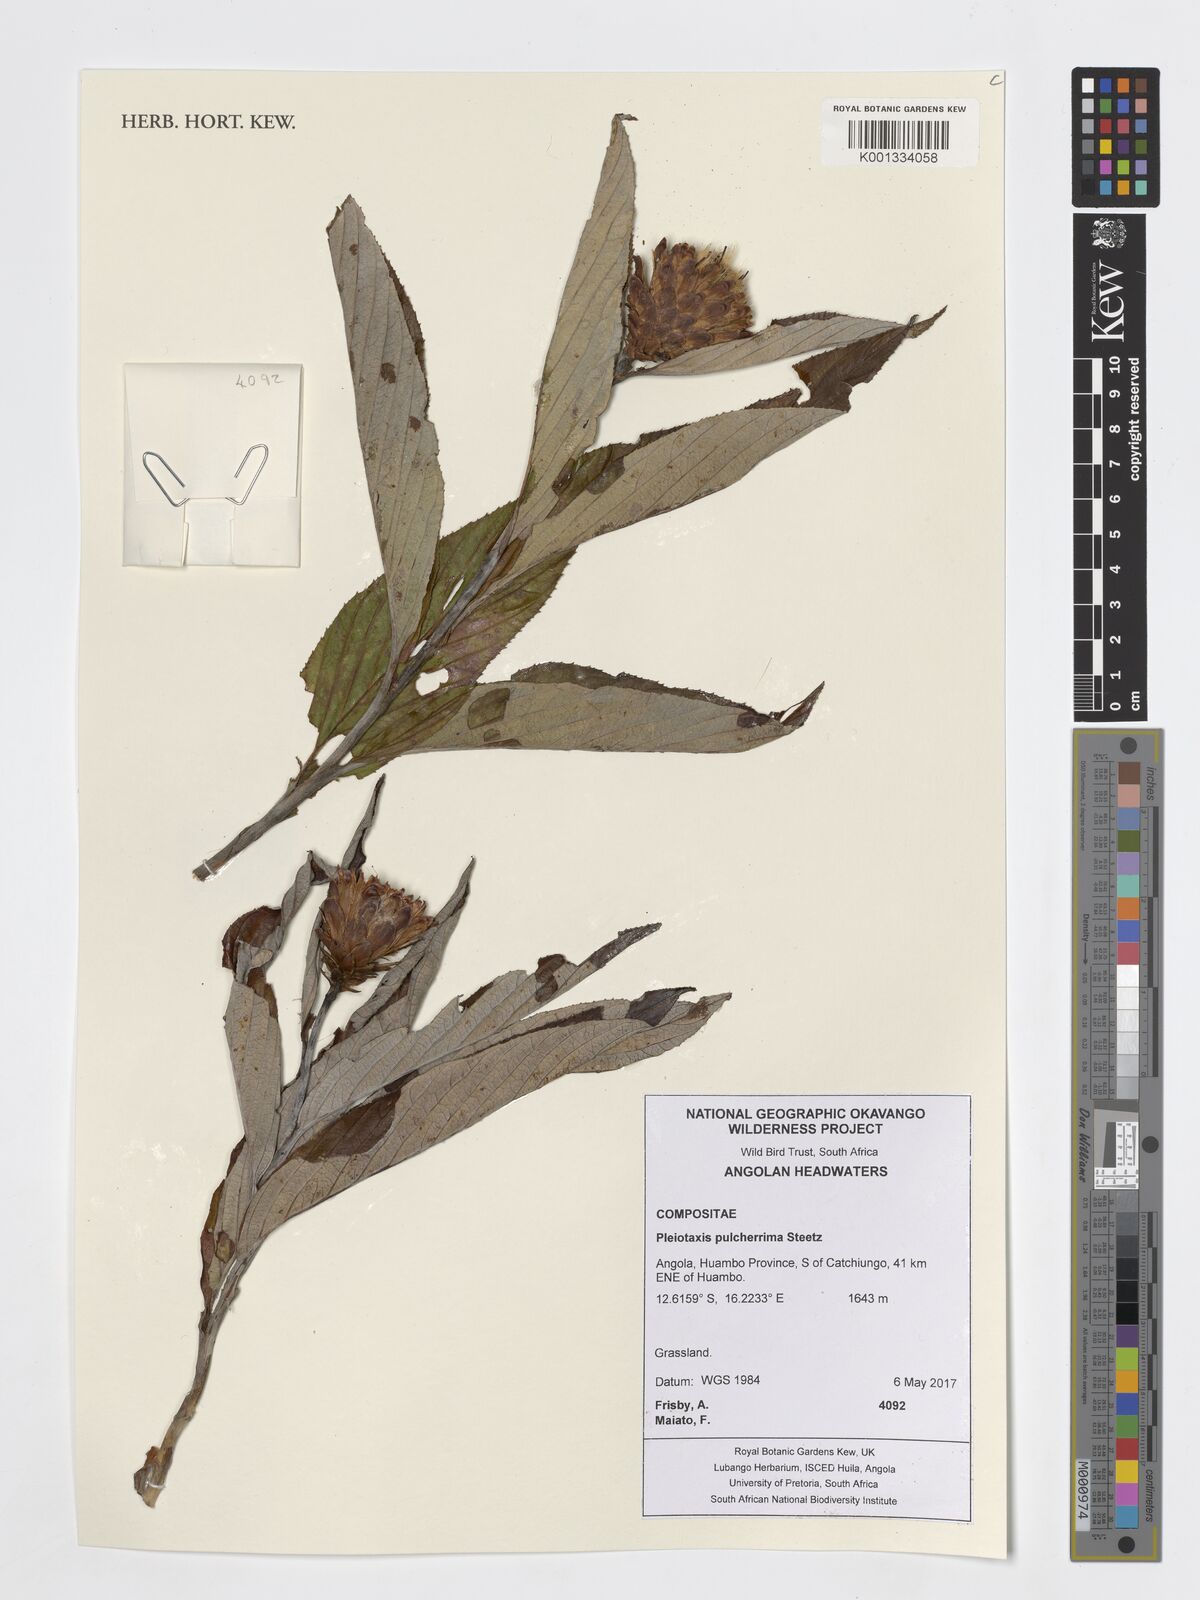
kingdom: Plantae
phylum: Tracheophyta
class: Magnoliopsida
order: Asterales
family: Asteraceae
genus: Pleiotaxis
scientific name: Pleiotaxis pulcherrima
